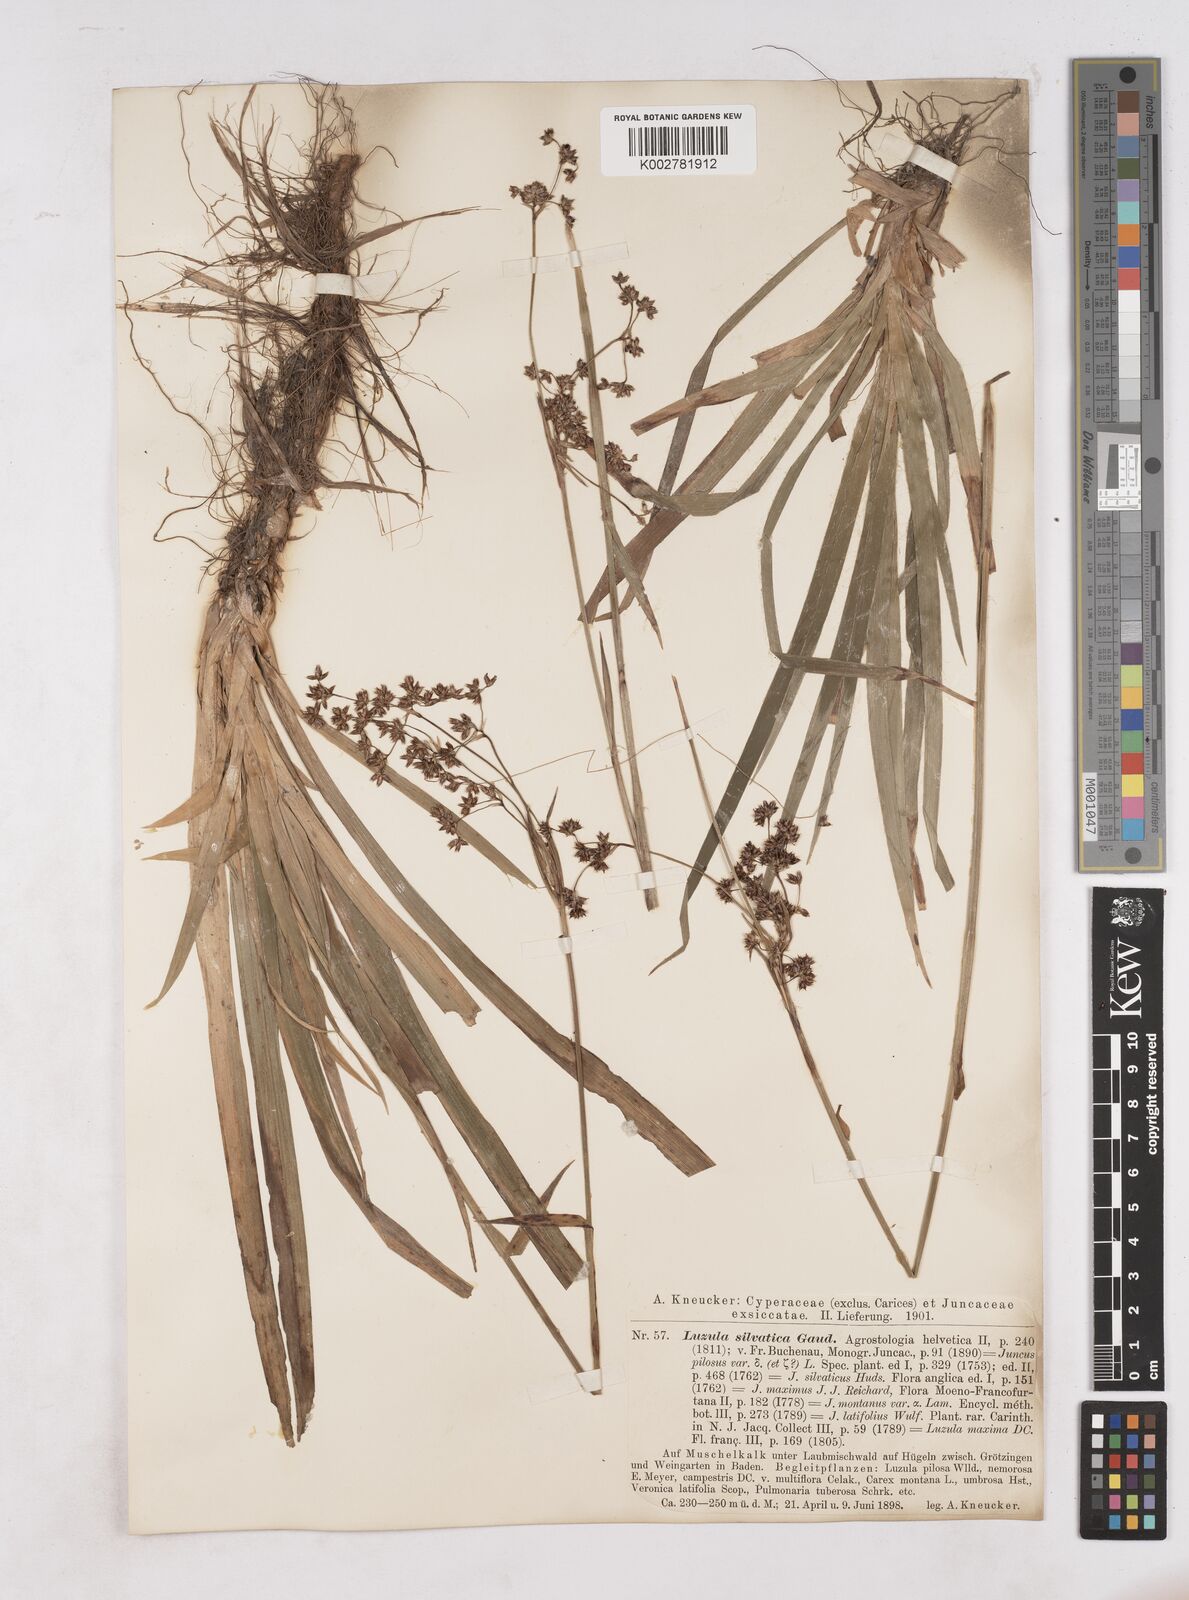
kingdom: Plantae
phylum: Tracheophyta
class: Liliopsida
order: Poales
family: Juncaceae
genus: Luzula
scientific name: Luzula sylvatica
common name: Great wood-rush
